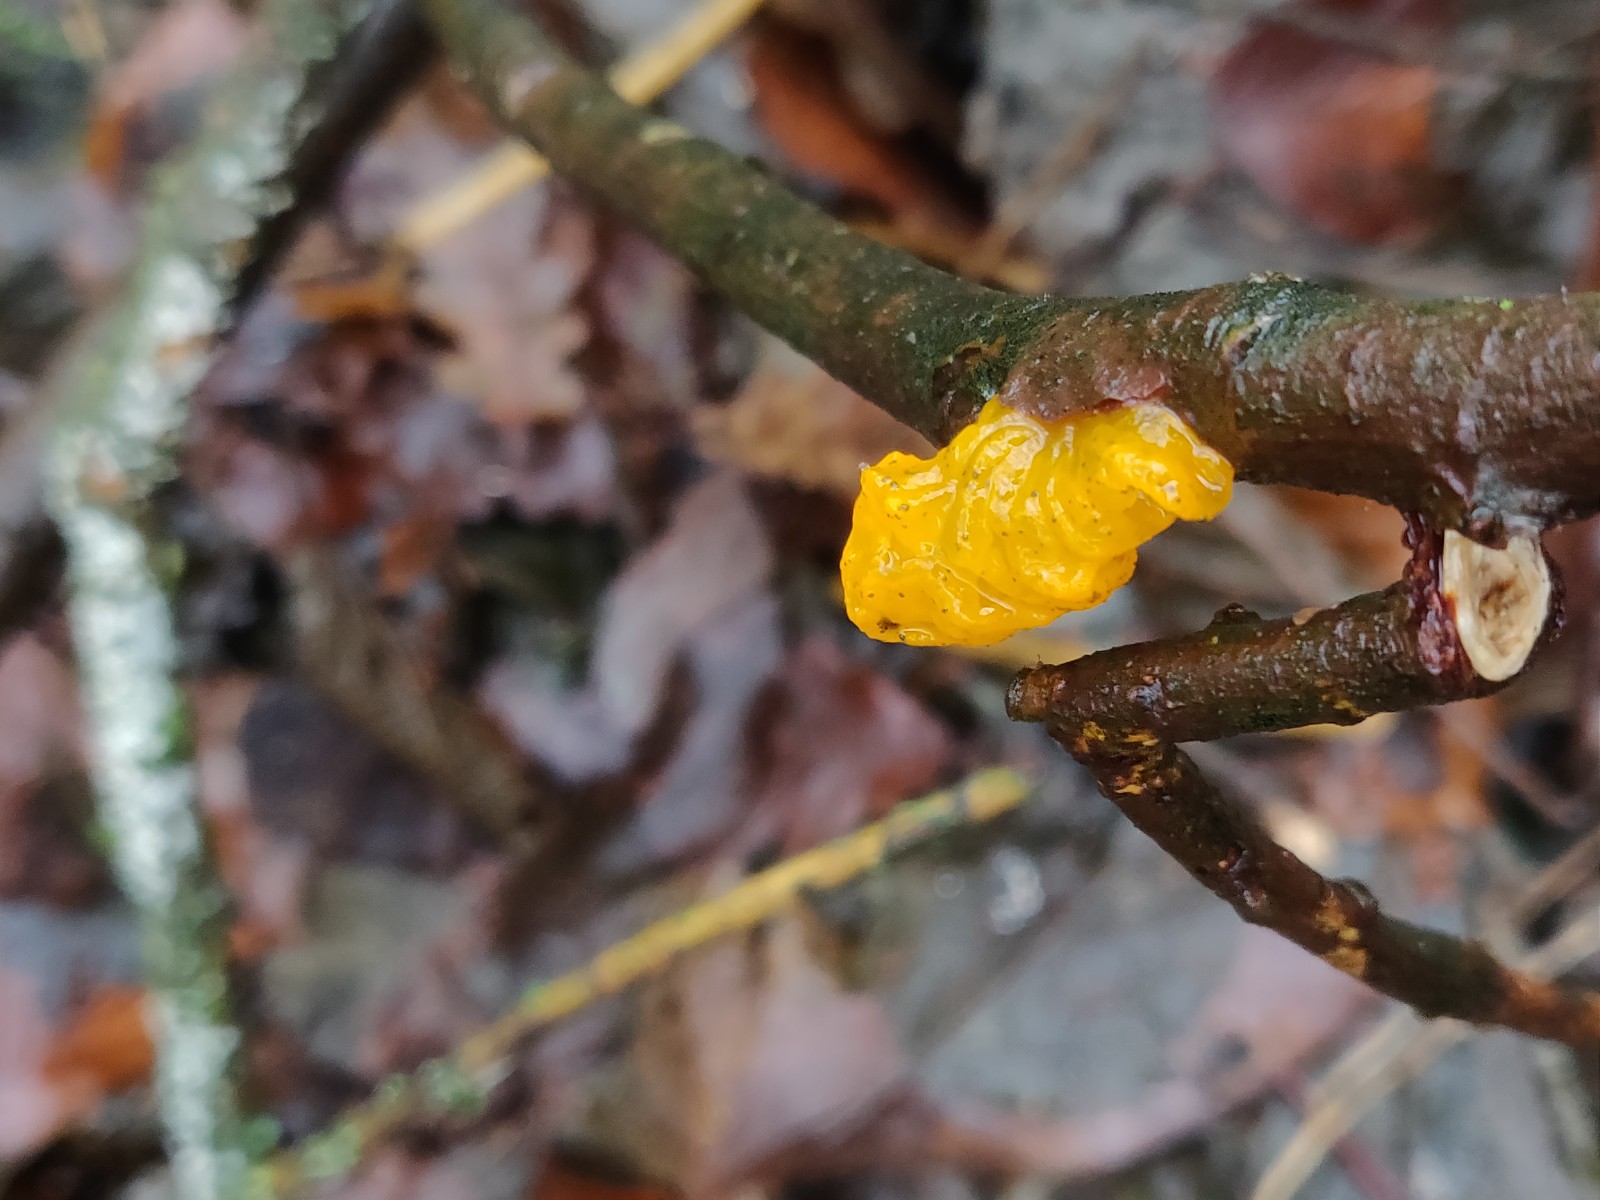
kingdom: Fungi
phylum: Basidiomycota
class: Tremellomycetes
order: Tremellales
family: Tremellaceae
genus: Tremella
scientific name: Tremella mesenterica
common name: gul bævresvamp
